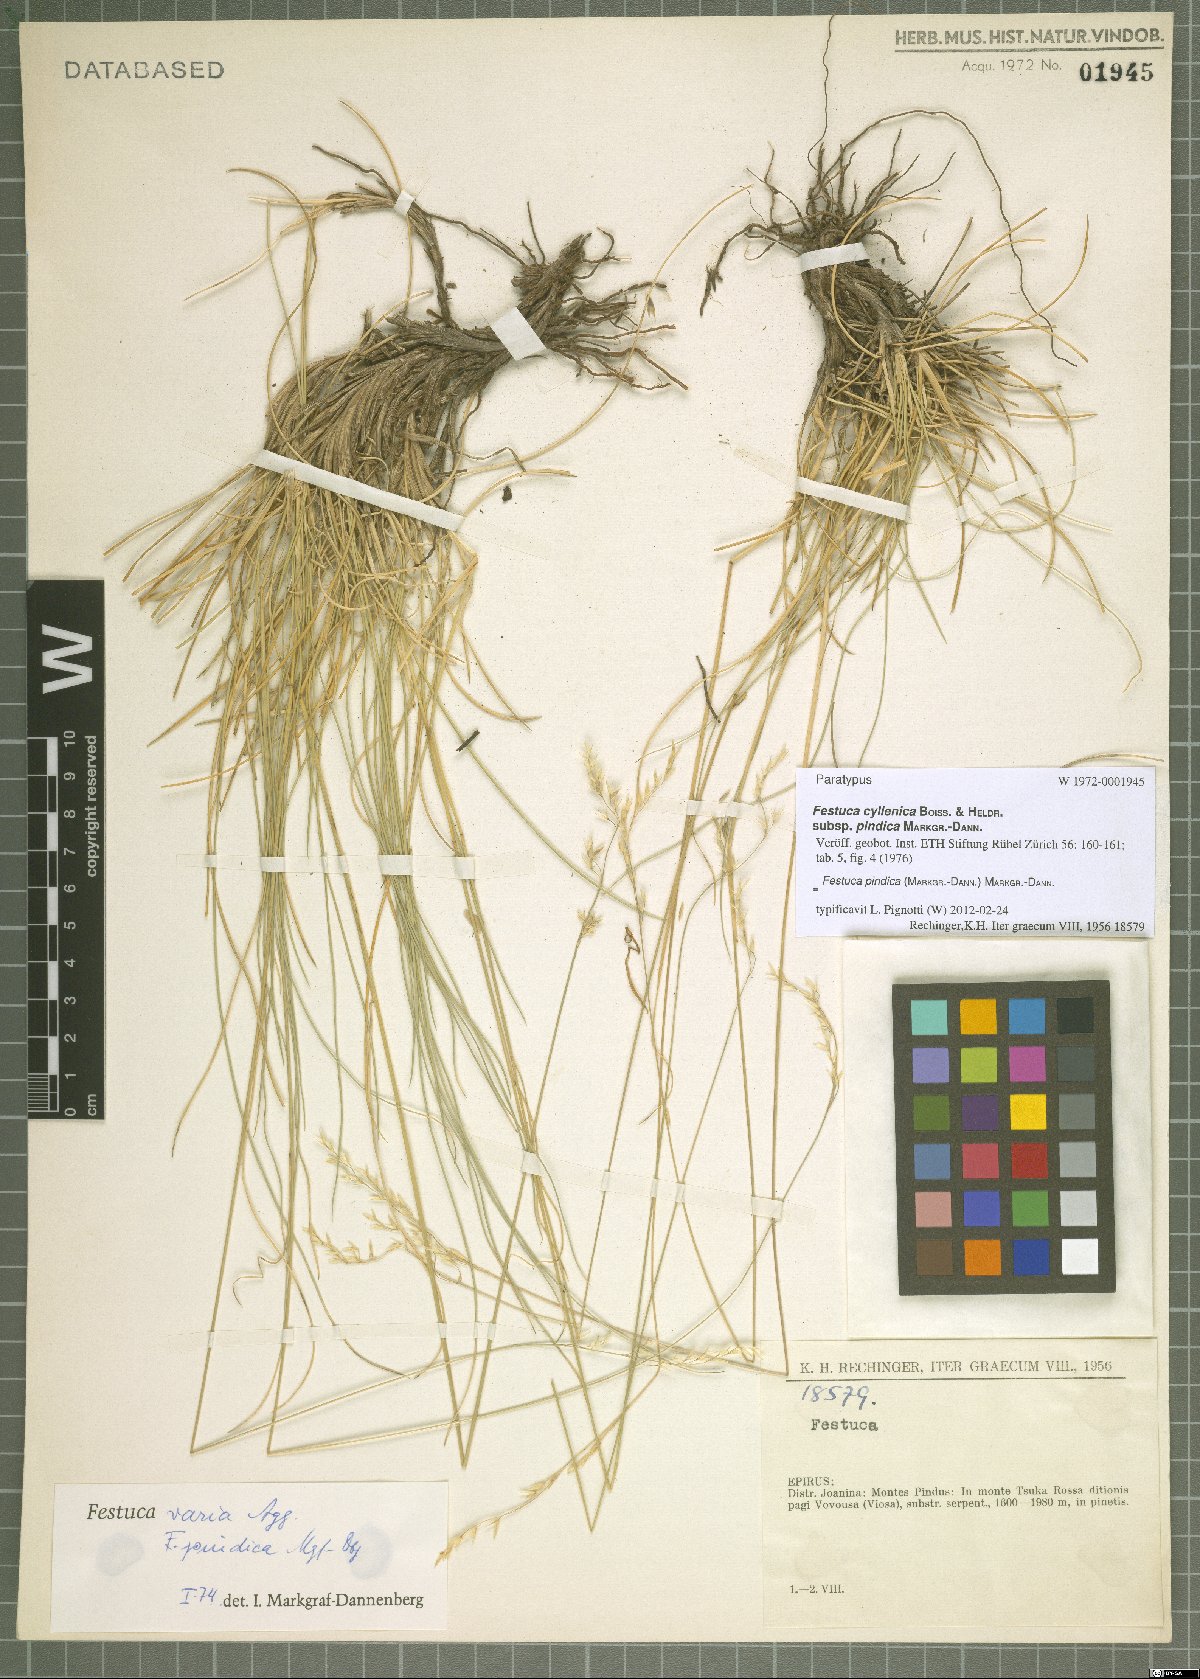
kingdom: Plantae
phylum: Tracheophyta
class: Liliopsida
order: Poales
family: Poaceae
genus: Festuca
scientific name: Festuca pindica
